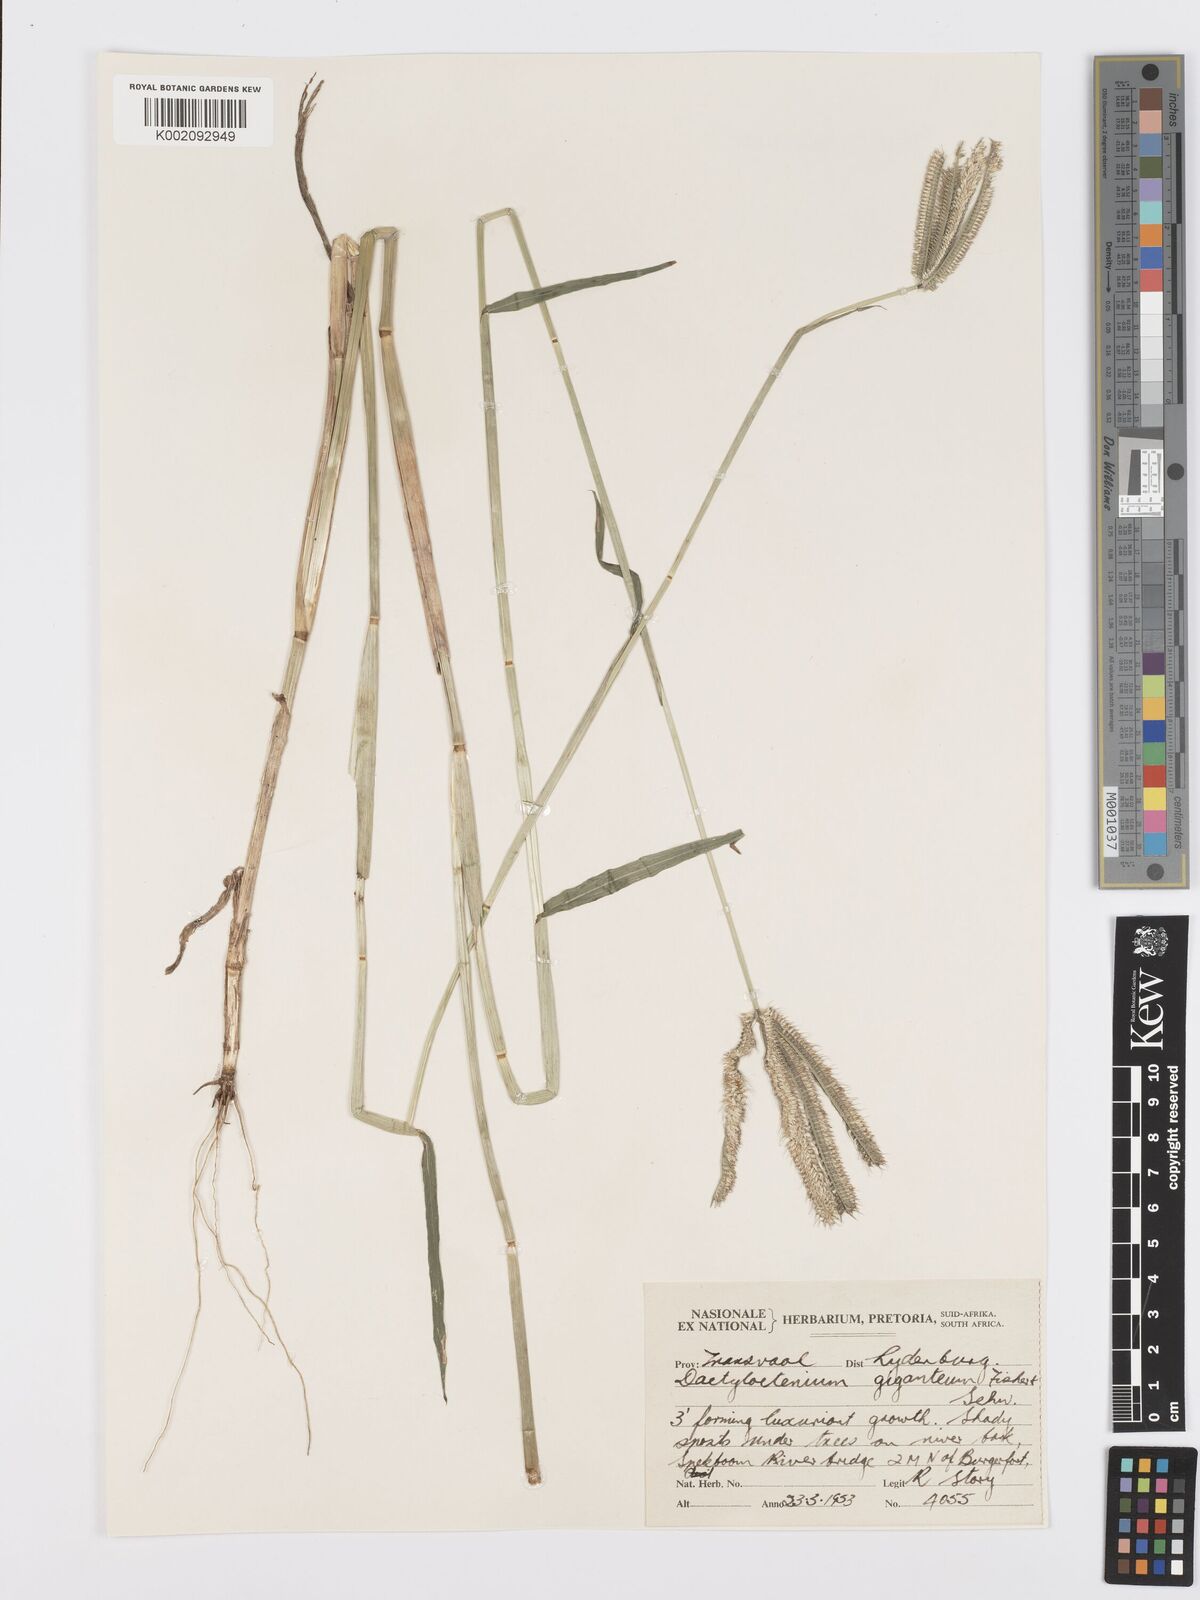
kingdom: Plantae
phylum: Tracheophyta
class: Liliopsida
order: Poales
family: Poaceae
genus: Dactyloctenium
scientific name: Dactyloctenium giganteum
